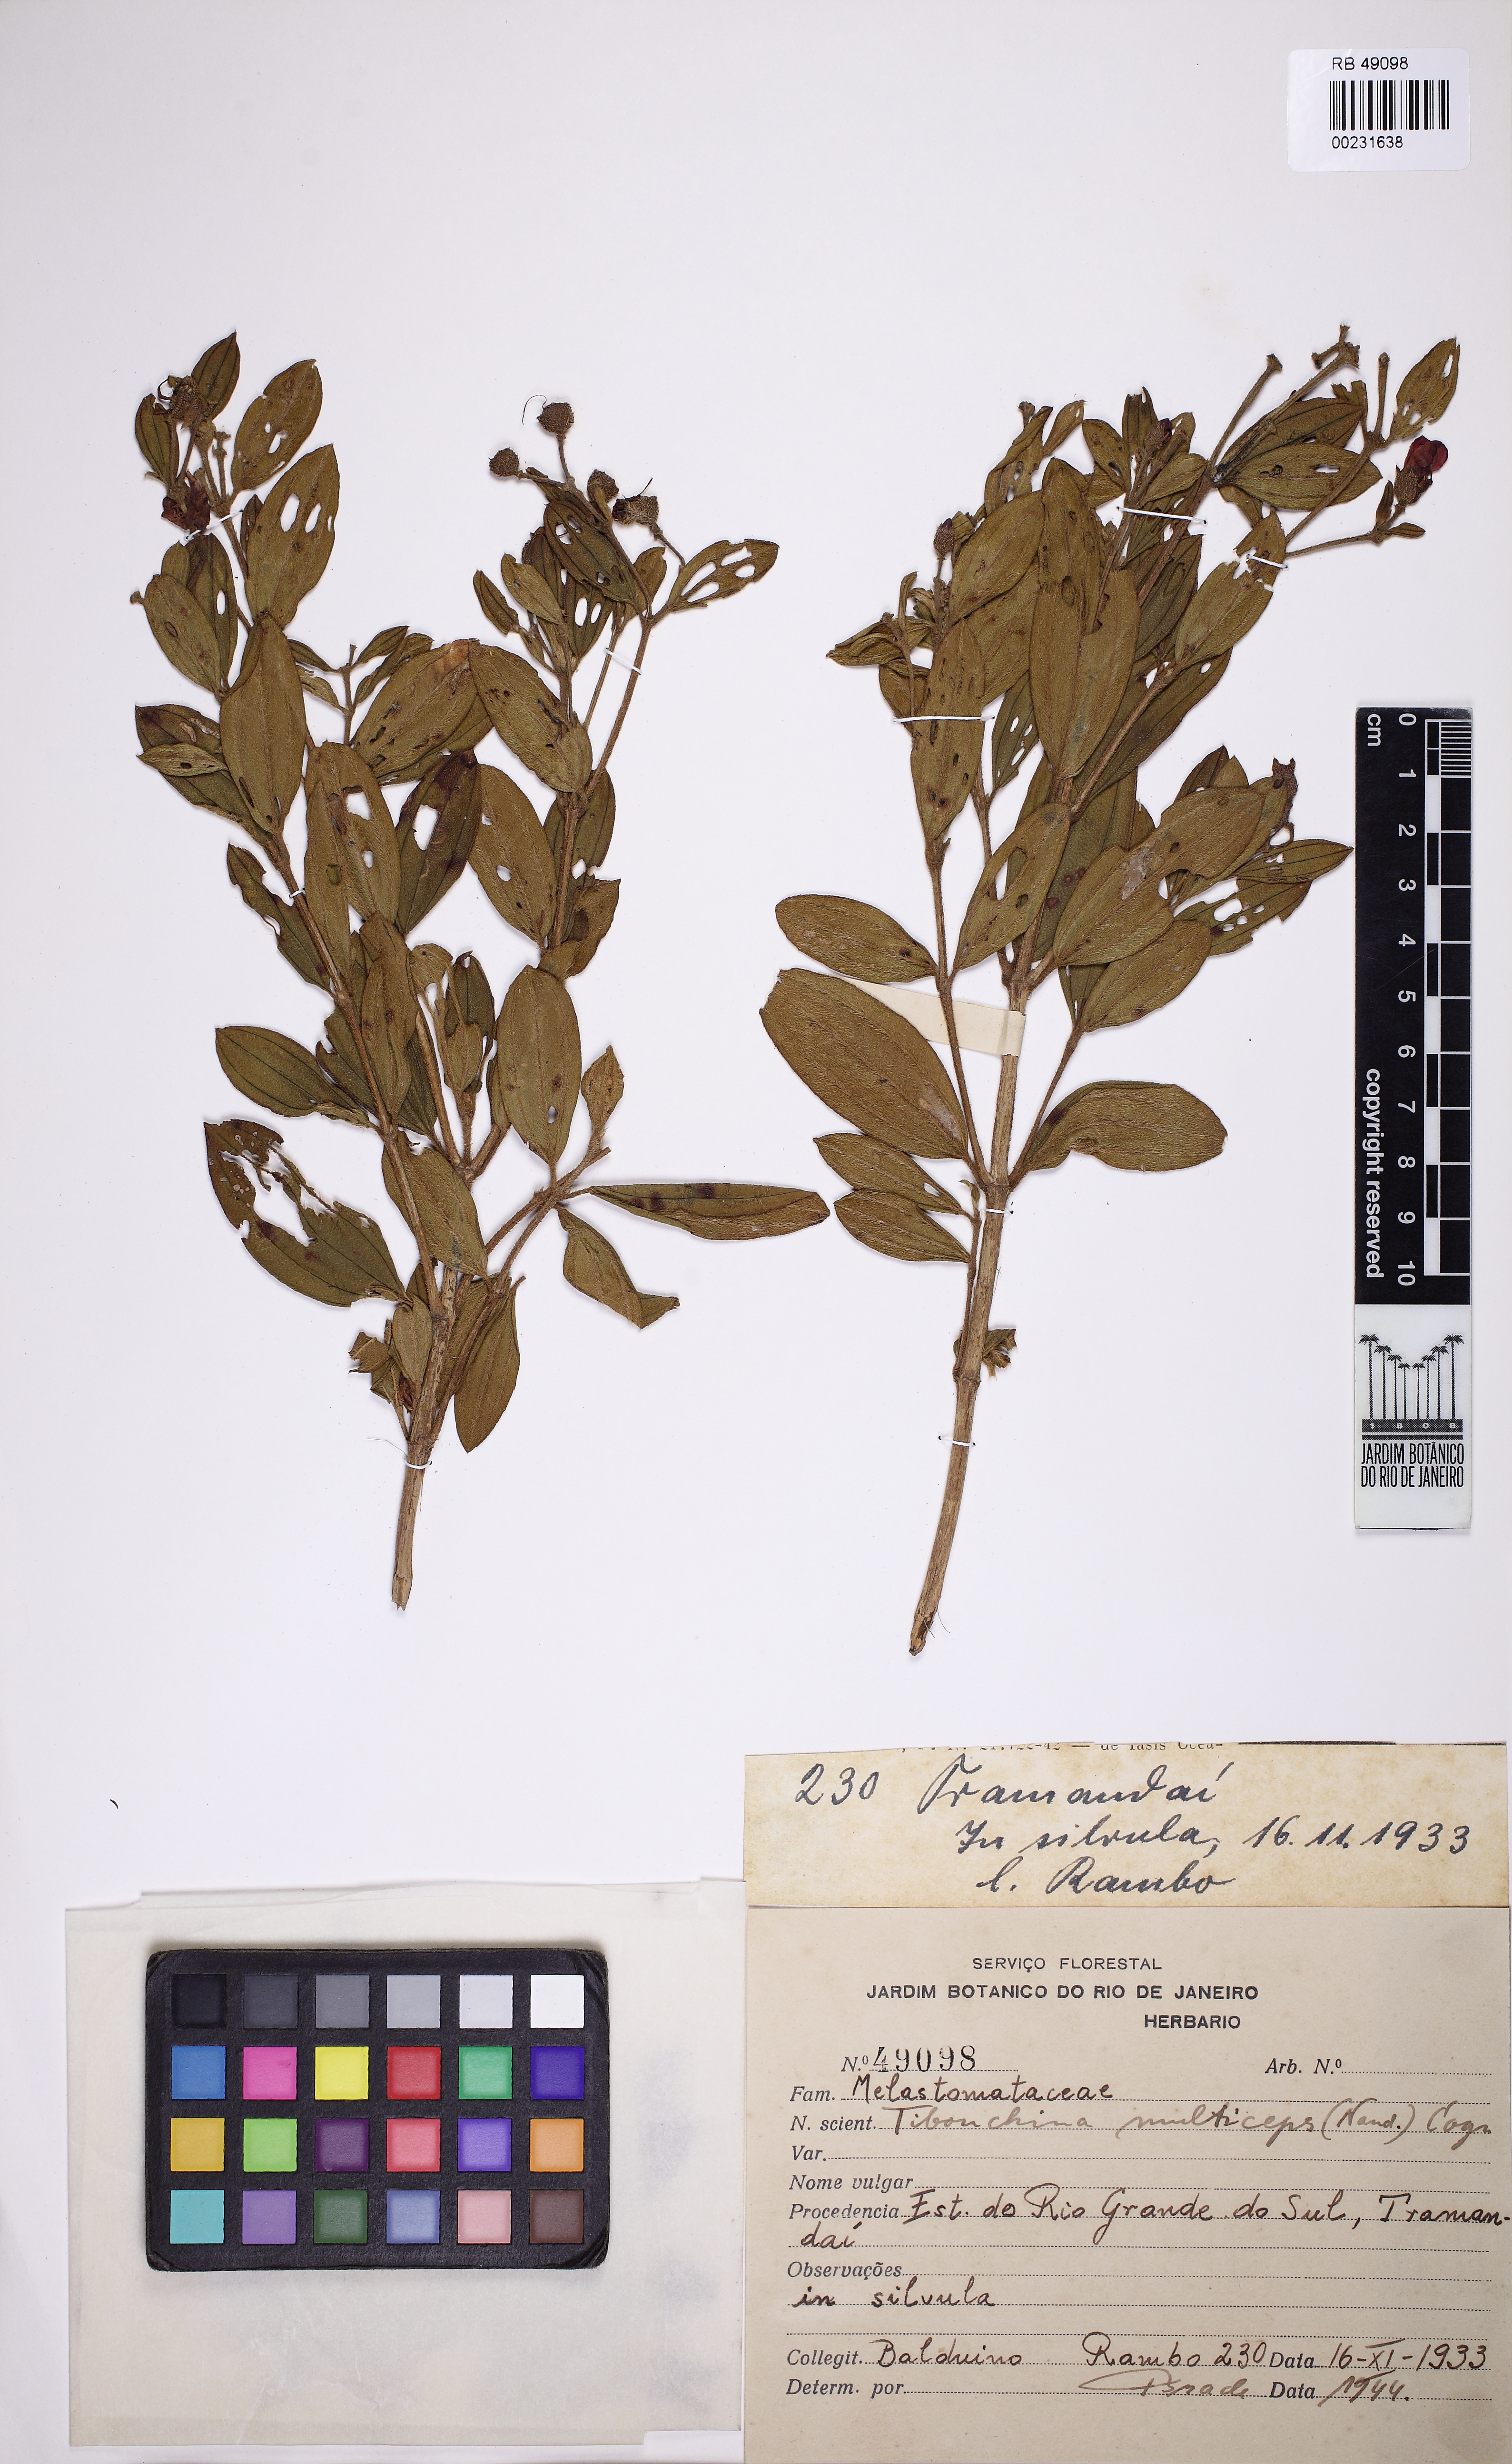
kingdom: Plantae
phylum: Tracheophyta
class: Magnoliopsida
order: Myrtales
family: Melastomataceae
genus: Chaetogastra
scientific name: Chaetogastra mollis
